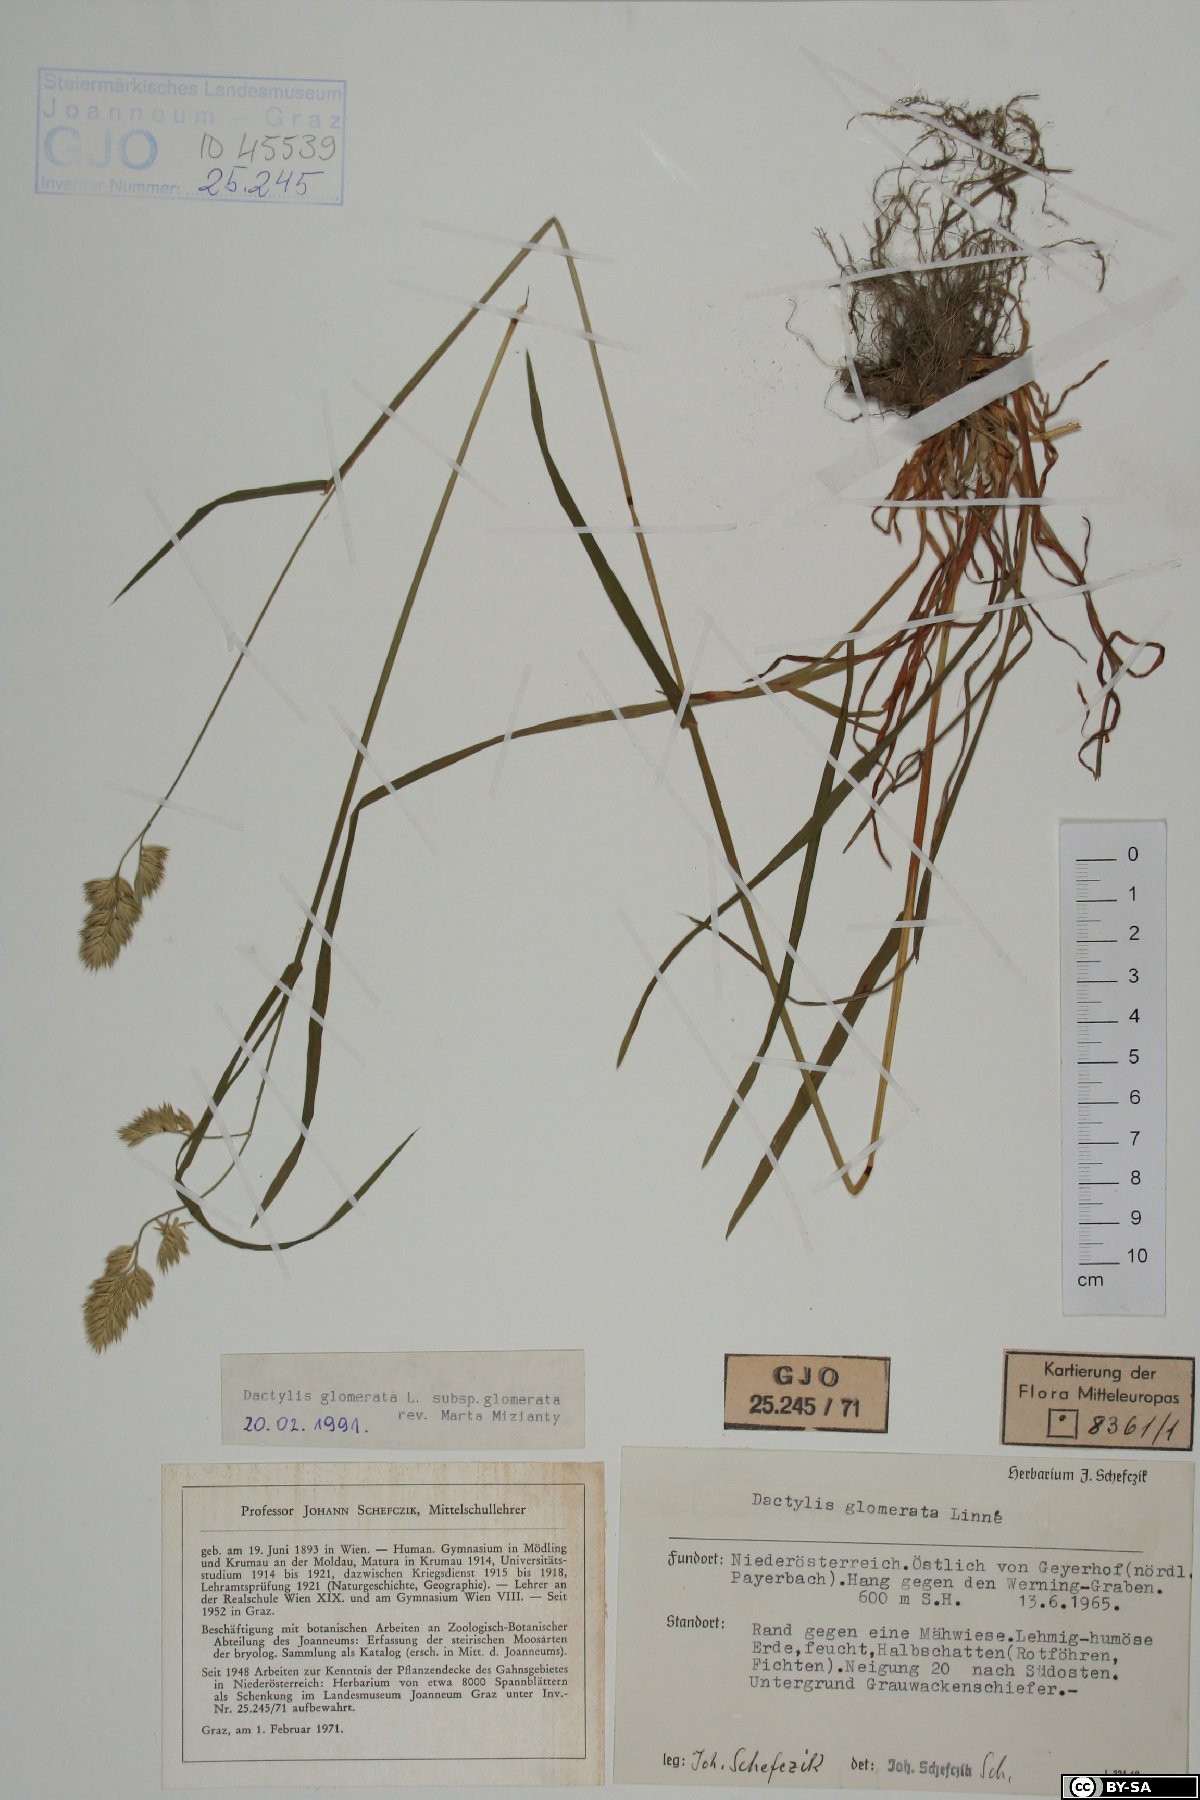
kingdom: Plantae
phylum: Tracheophyta
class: Liliopsida
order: Poales
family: Poaceae
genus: Dactylis
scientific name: Dactylis glomerata
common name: Orchardgrass
